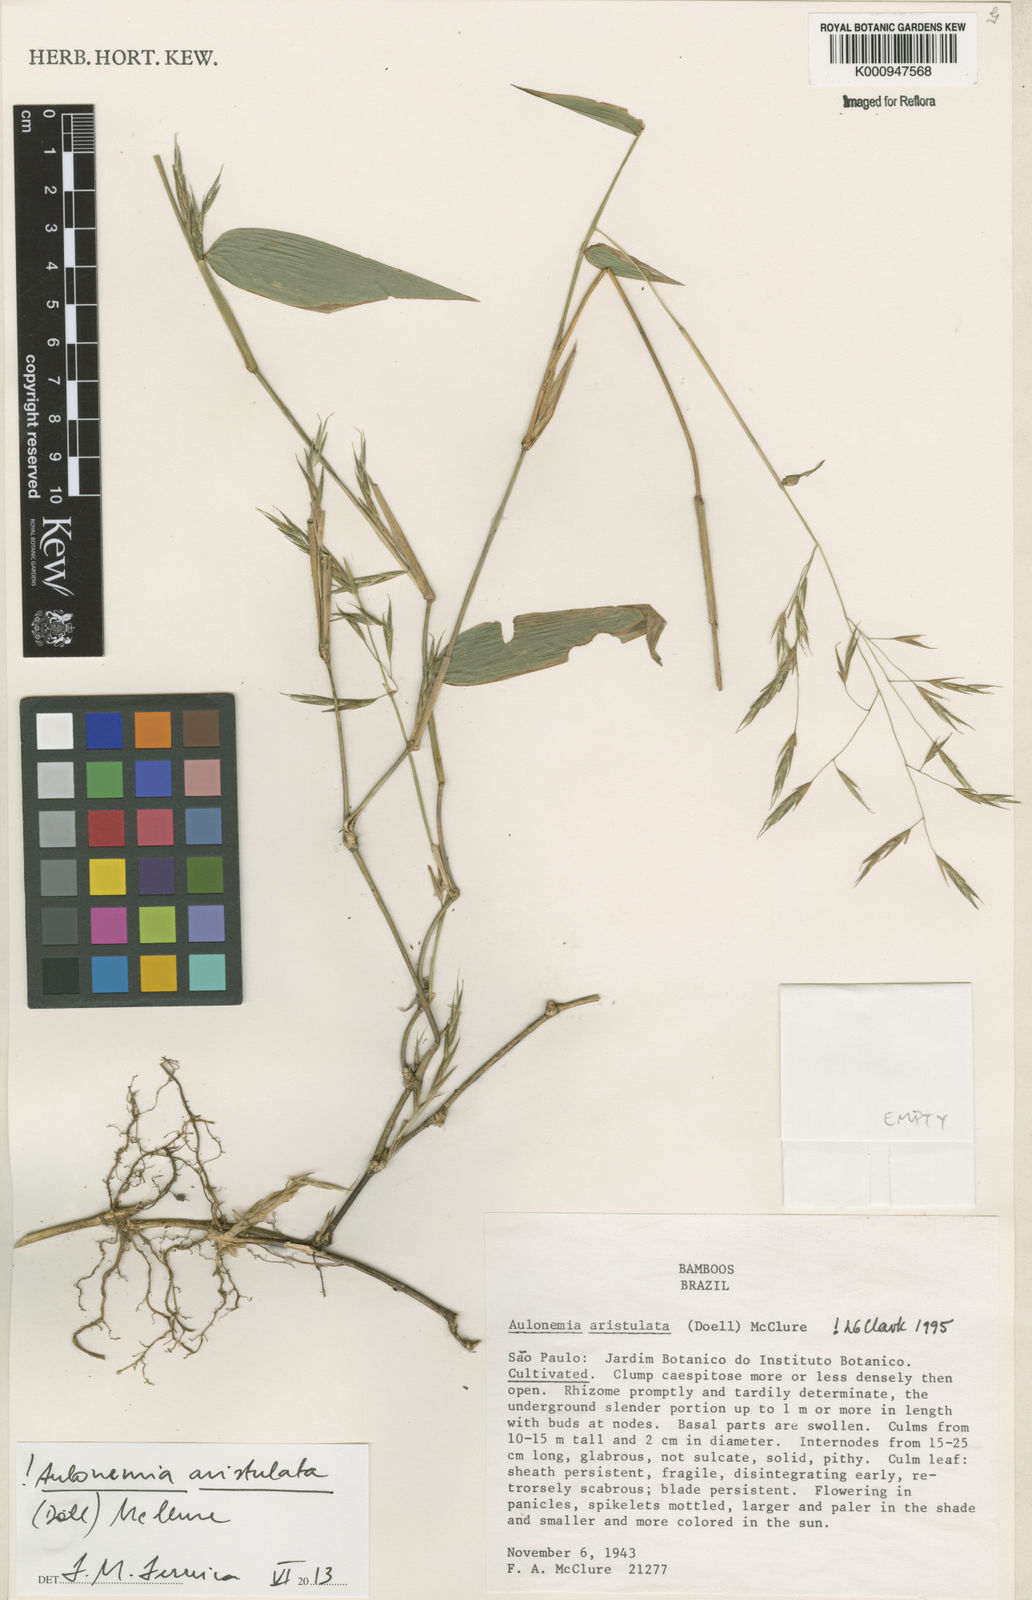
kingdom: Plantae
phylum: Tracheophyta
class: Liliopsida
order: Poales
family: Poaceae
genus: Aulonemia
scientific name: Aulonemia
